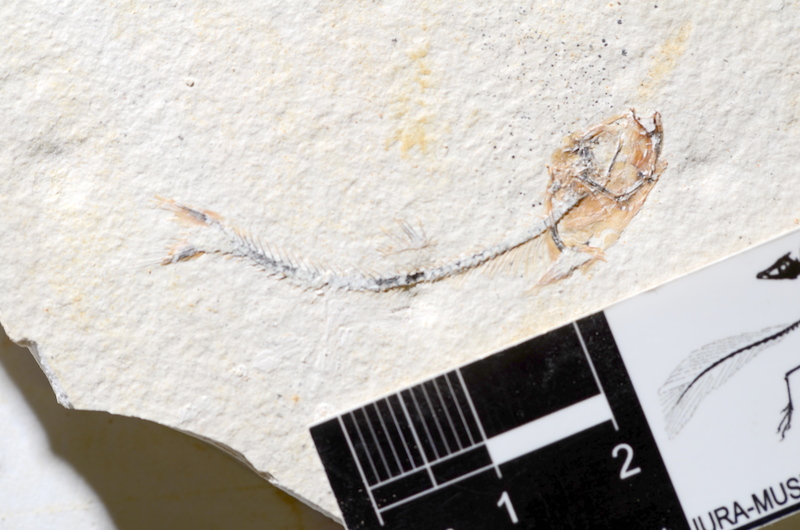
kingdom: Animalia
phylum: Chordata
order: Salmoniformes
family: Orthogonikleithridae
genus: Orthogonikleithrus
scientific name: Orthogonikleithrus hoelli
